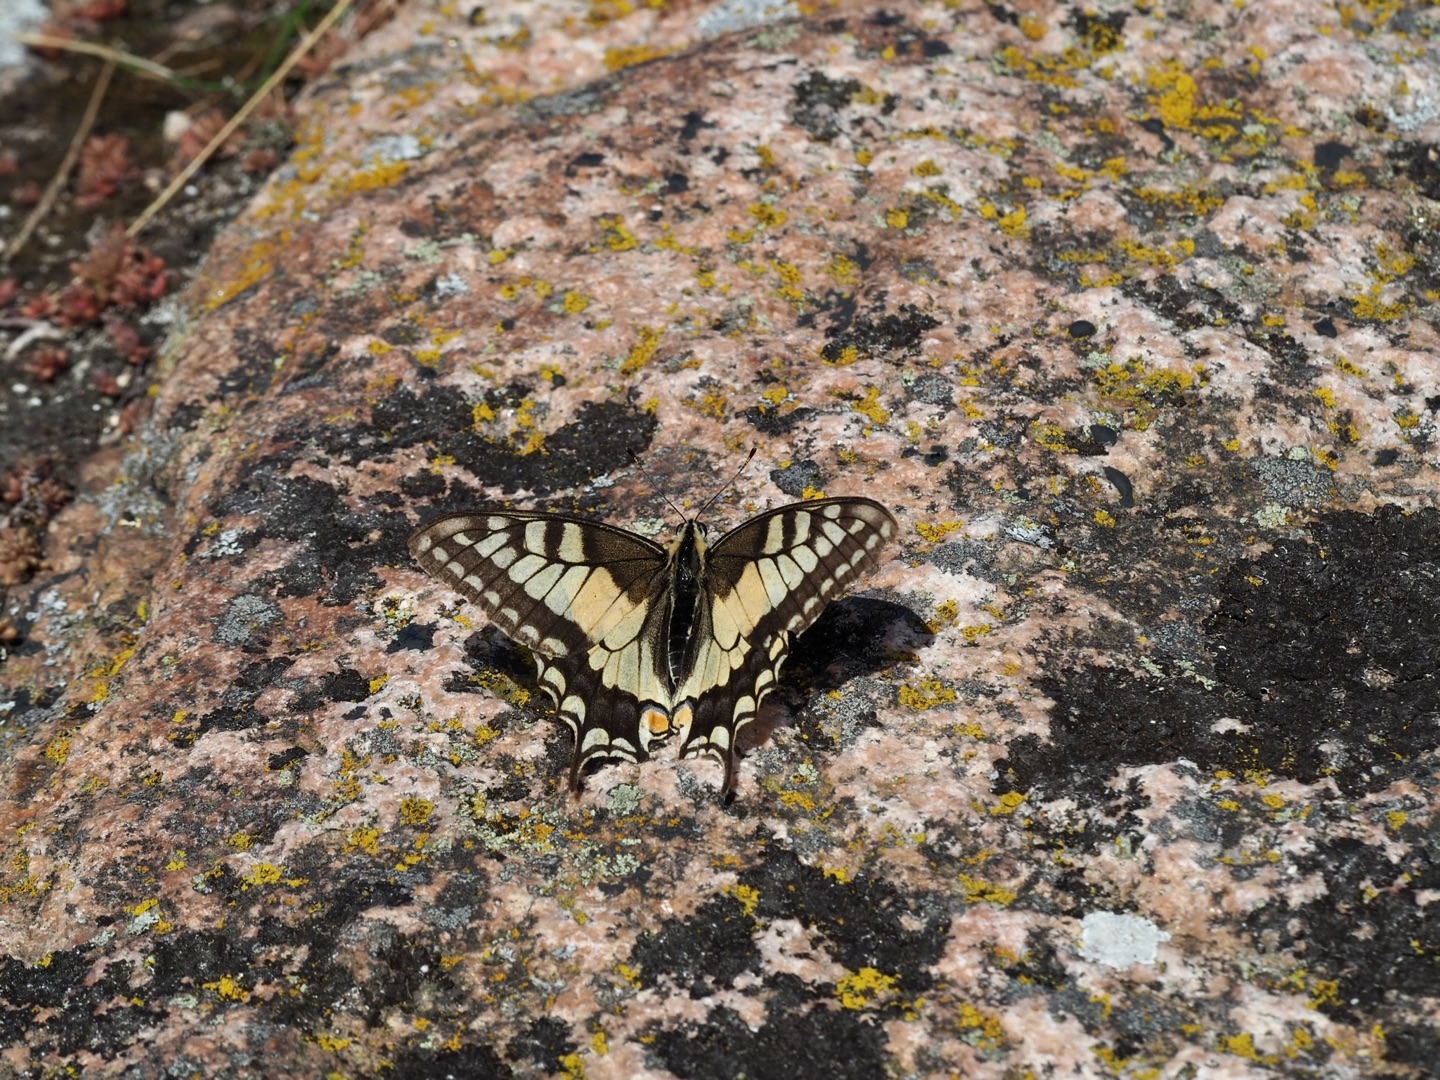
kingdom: Animalia
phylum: Arthropoda
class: Insecta
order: Lepidoptera
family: Papilionidae
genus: Papilio
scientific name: Papilio machaon
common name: Svalehale
